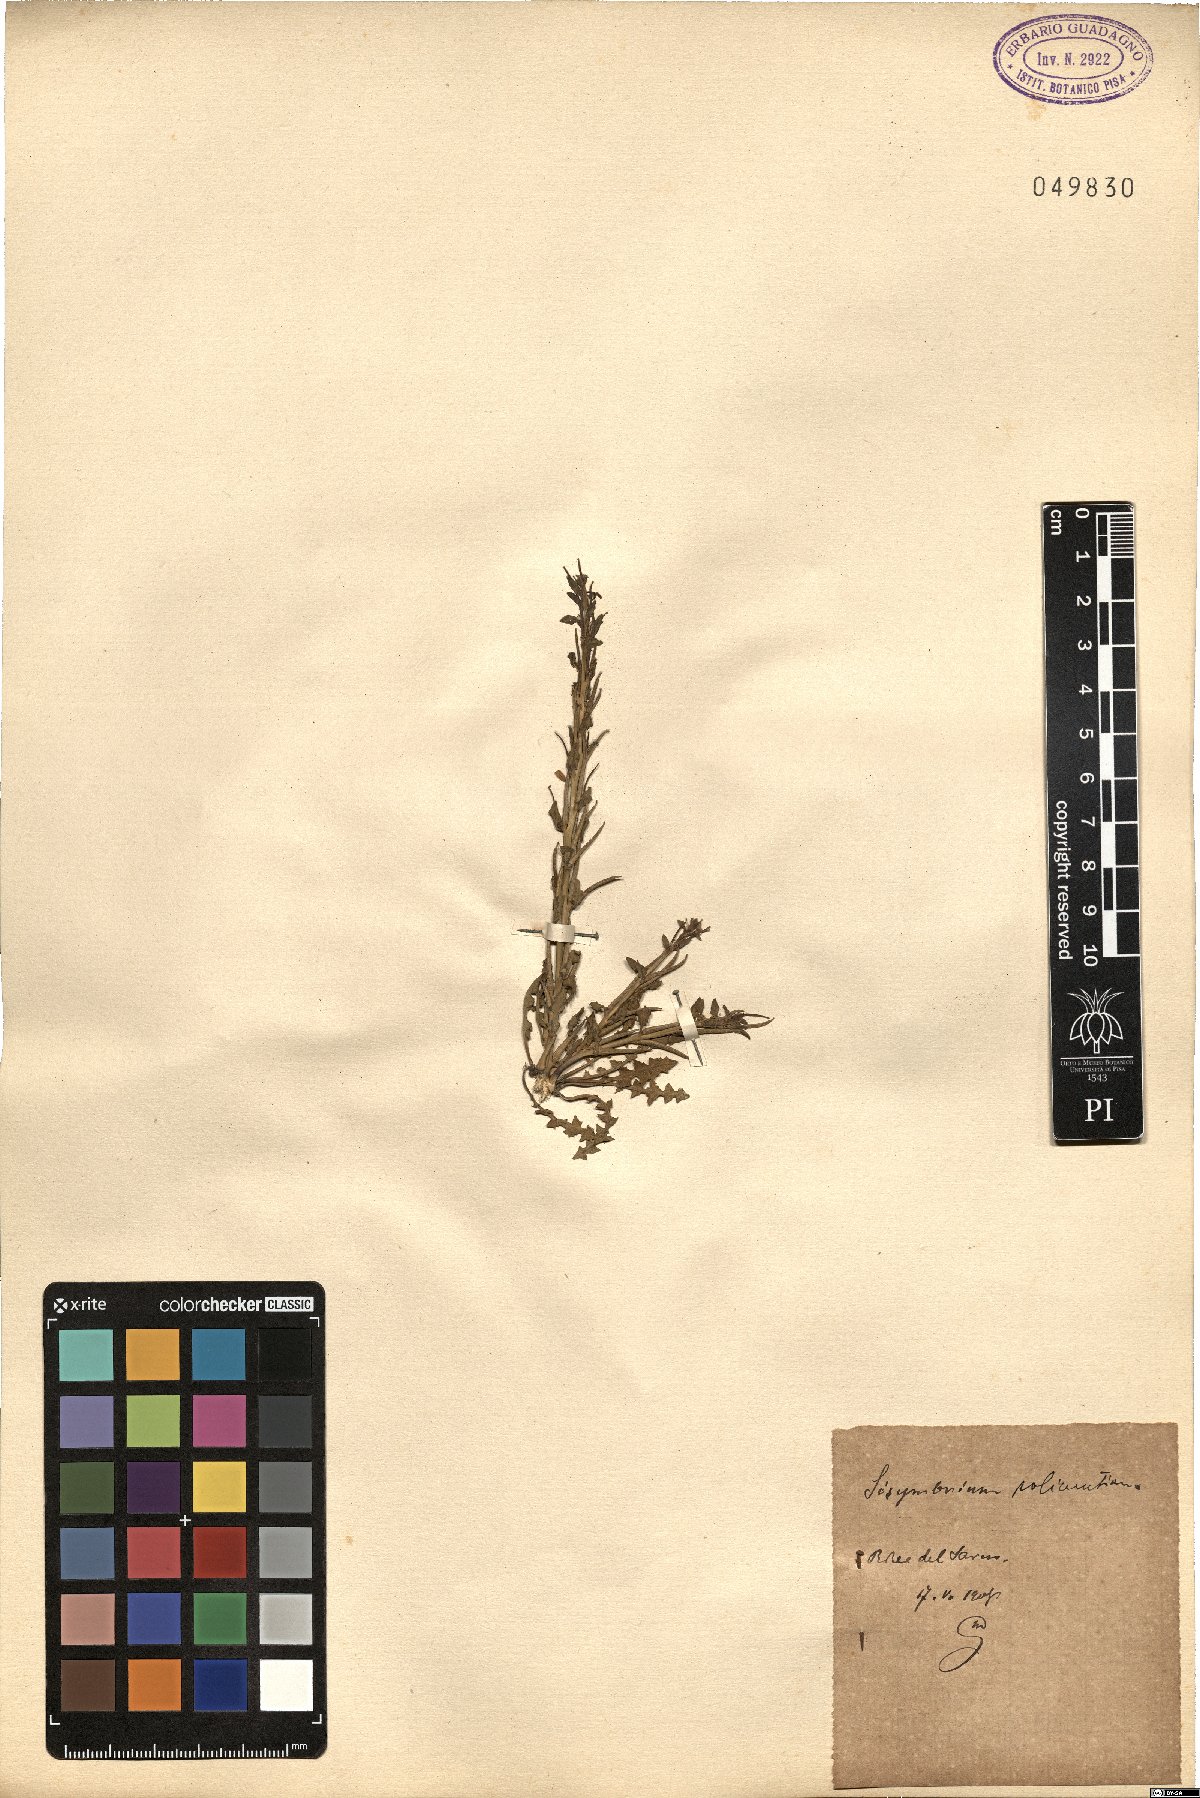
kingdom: Plantae
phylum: Tracheophyta
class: Magnoliopsida
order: Brassicales
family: Brassicaceae
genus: Sisymbrium
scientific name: Sisymbrium polyceratium
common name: Shortfruit hedgemustard
